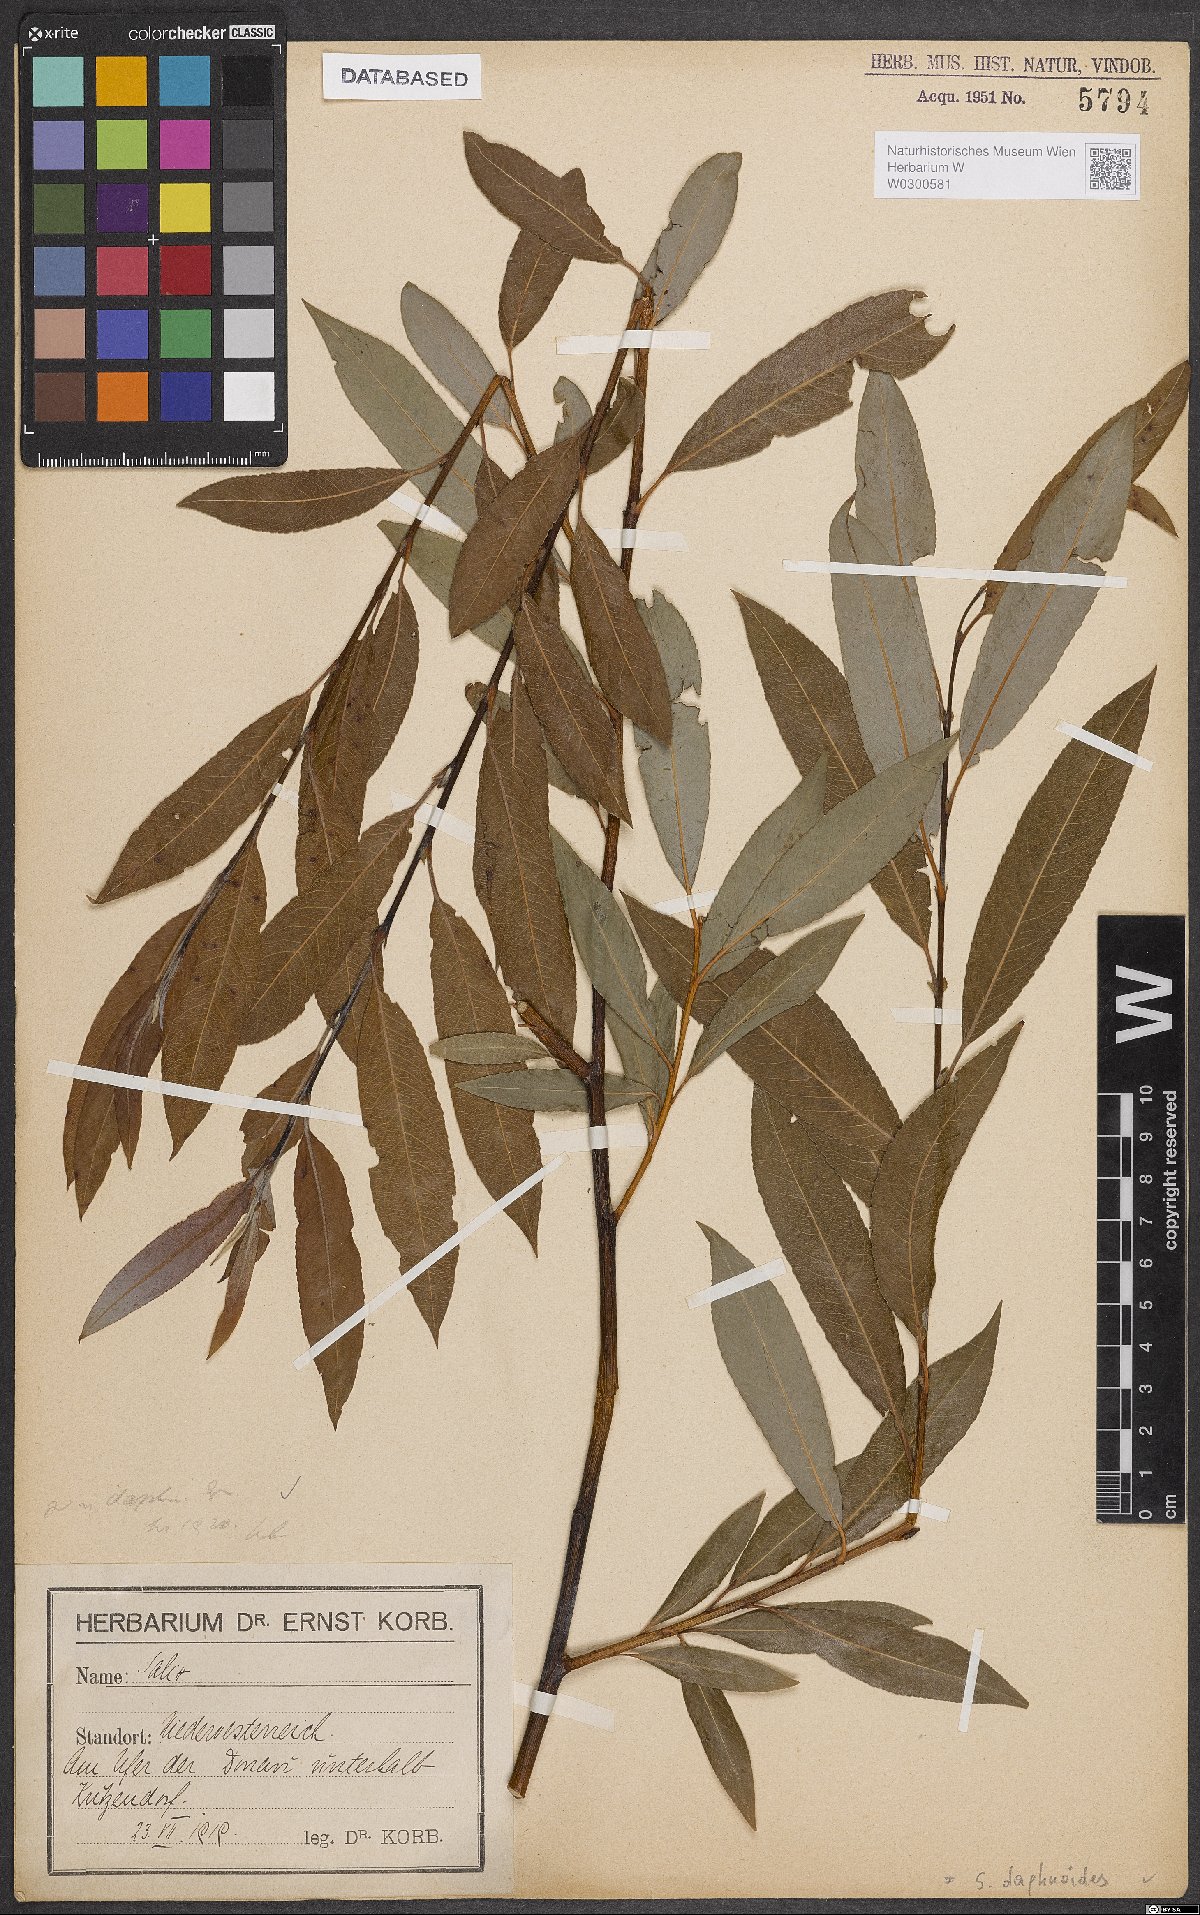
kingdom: Plantae
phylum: Tracheophyta
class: Magnoliopsida
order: Malpighiales
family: Salicaceae
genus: Salix
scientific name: Salix daphnoides
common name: European violet-willow
